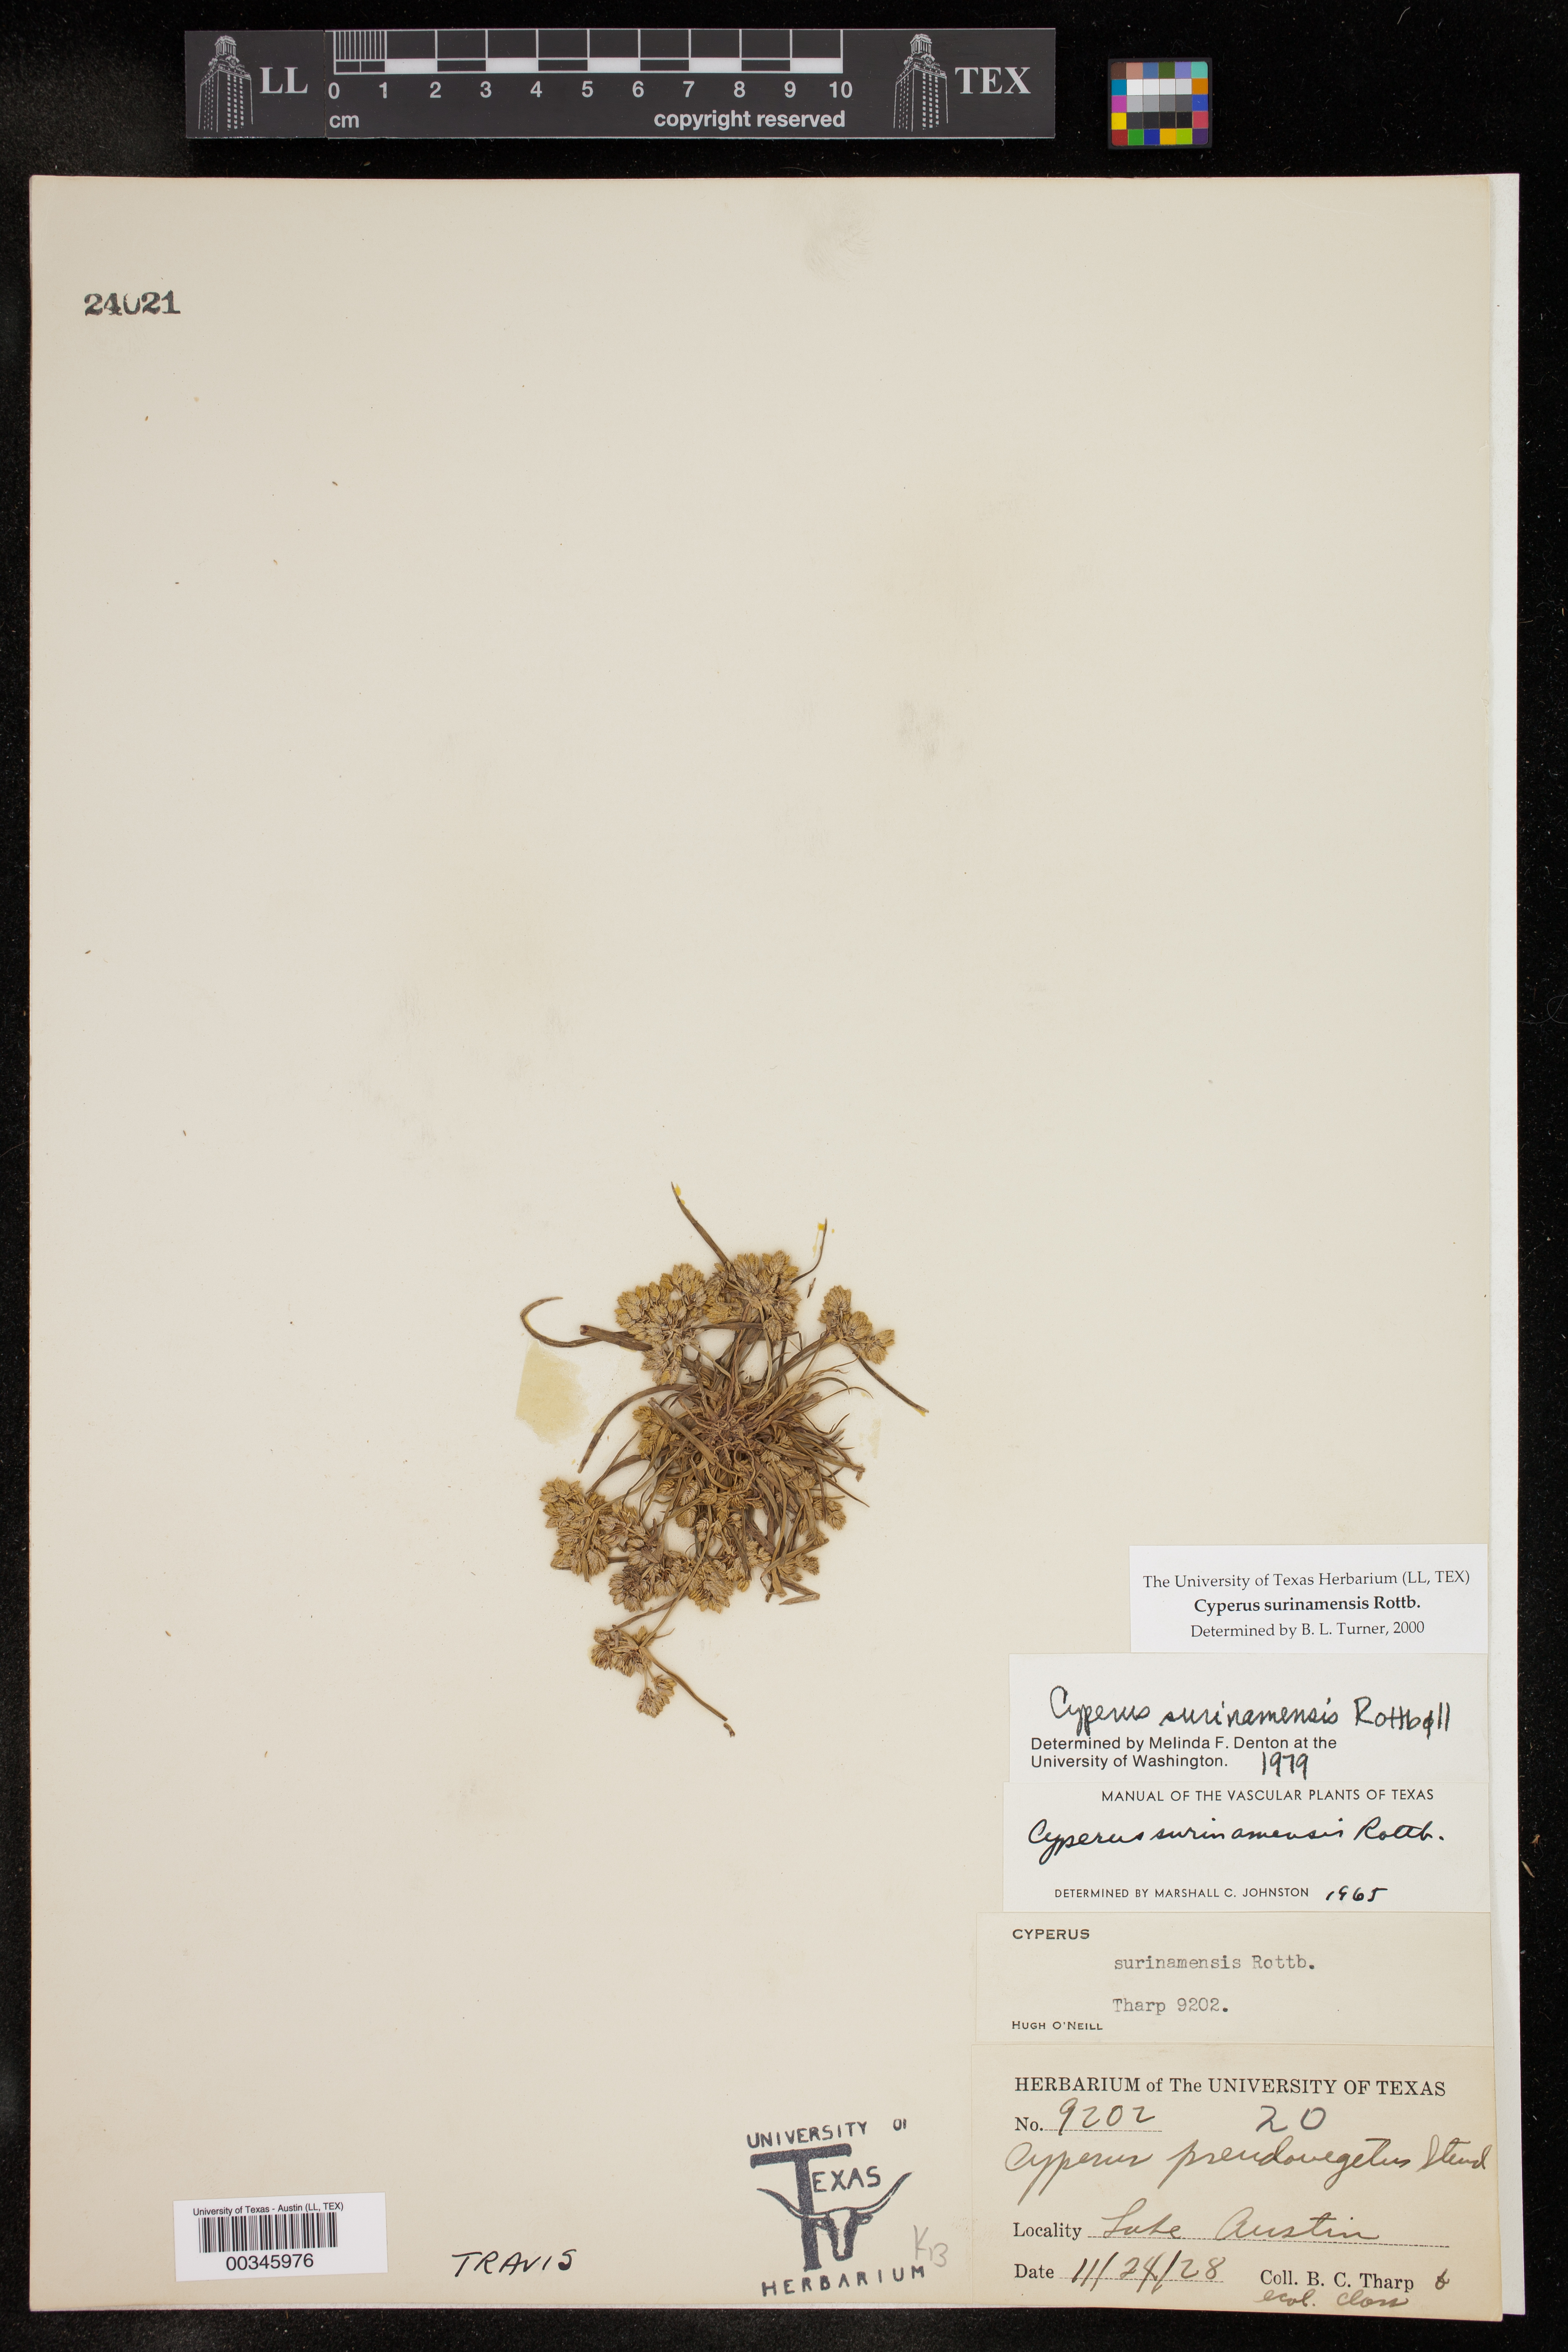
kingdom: Plantae
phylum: Tracheophyta
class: Liliopsida
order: Poales
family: Cyperaceae
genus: Cyperus
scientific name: Cyperus surinamensis
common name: Tropical flat sedge
